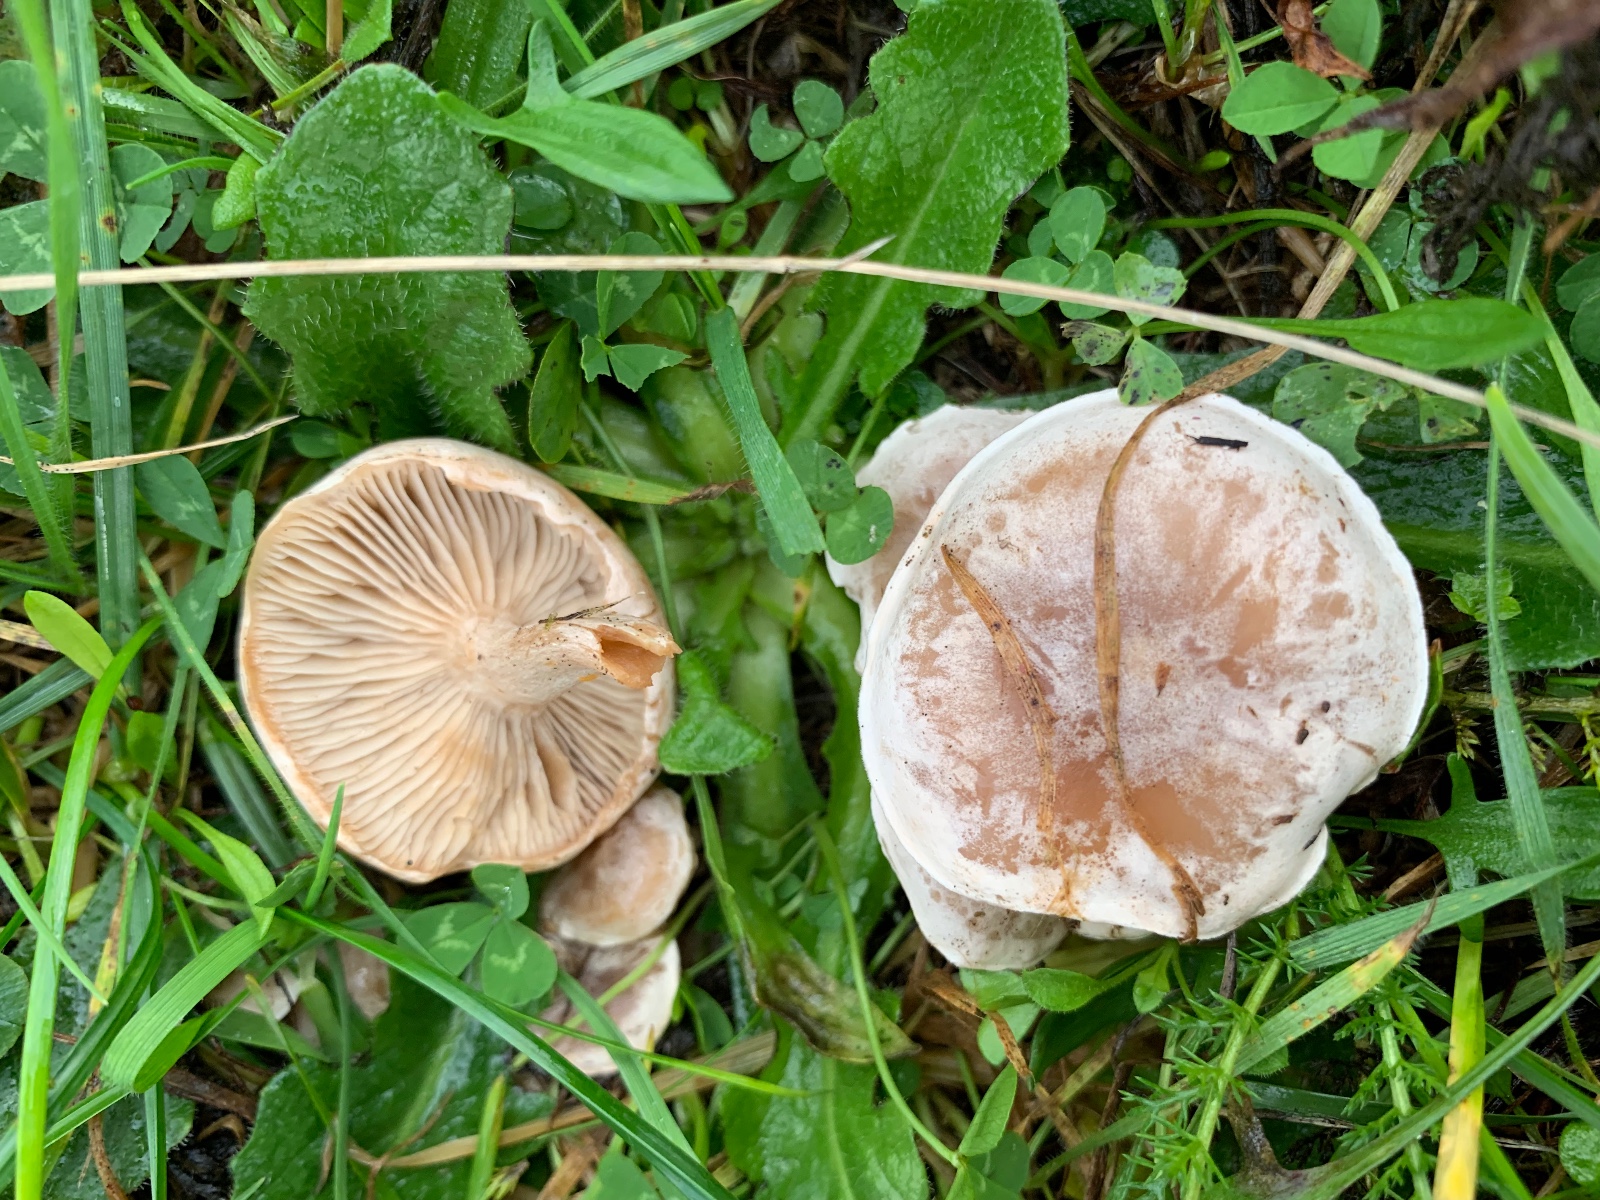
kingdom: Fungi
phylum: Basidiomycota
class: Agaricomycetes
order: Agaricales
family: Tricholomataceae
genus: Clitocybe
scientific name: Clitocybe rivulosa
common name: eng-tragthat
